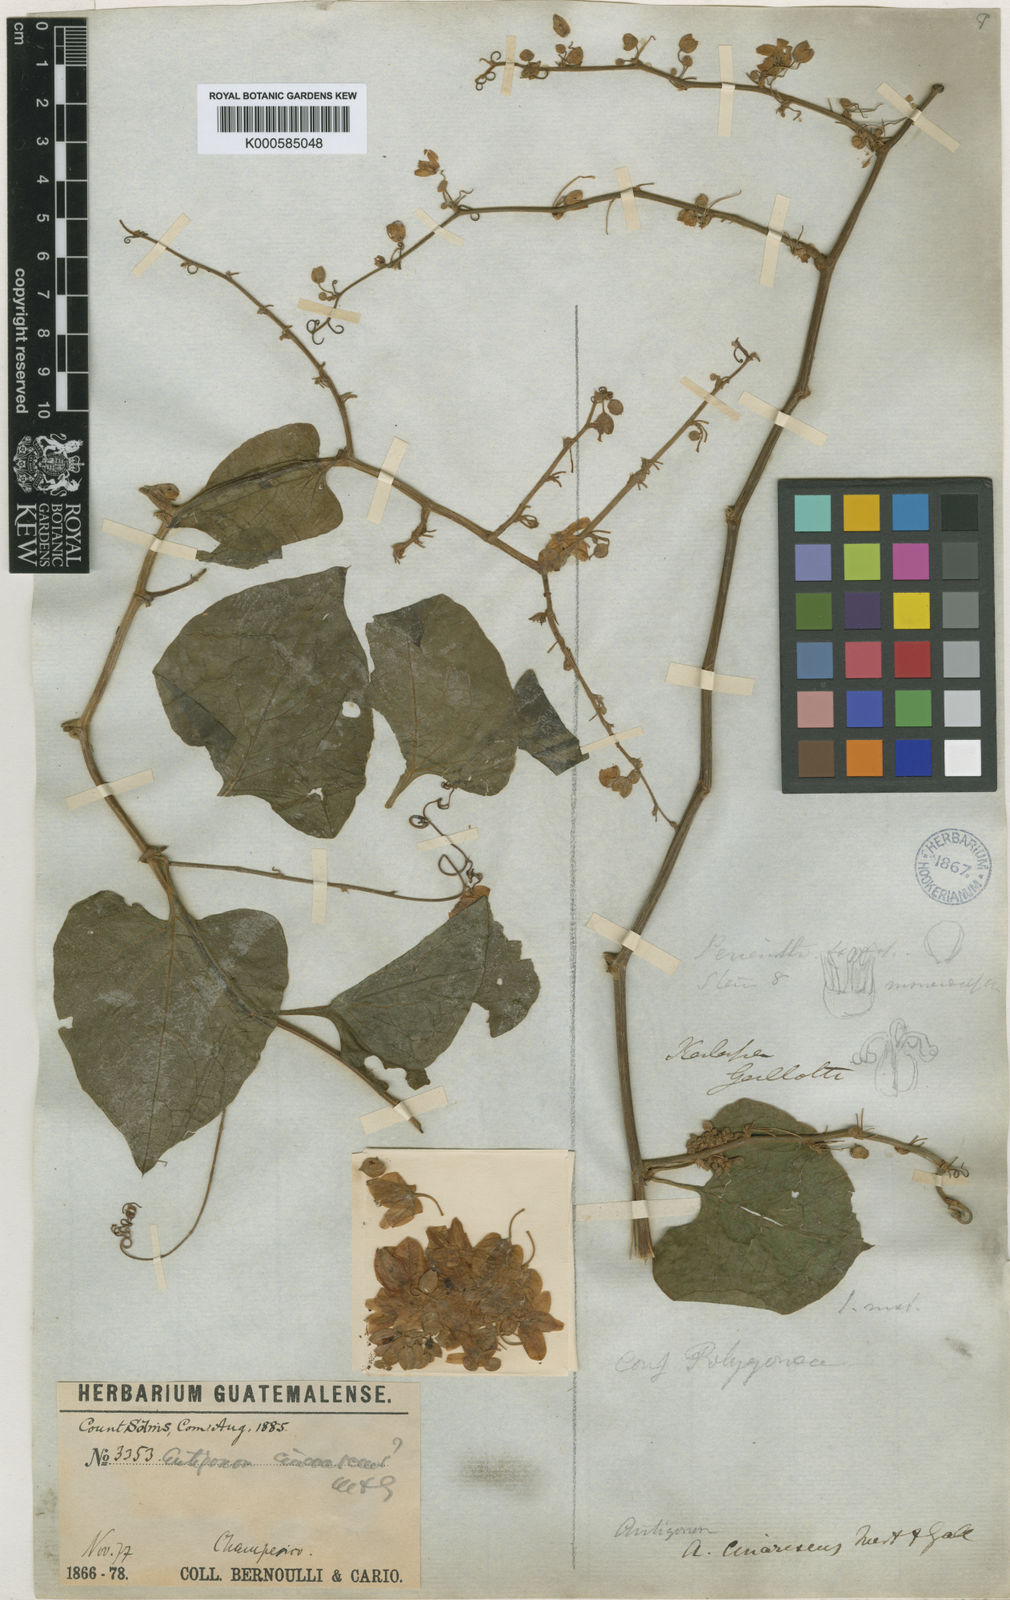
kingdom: Plantae
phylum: Tracheophyta
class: Magnoliopsida
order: Caryophyllales
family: Polygonaceae
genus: Antigonon
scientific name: Antigonon leptopus
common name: Coral vine
